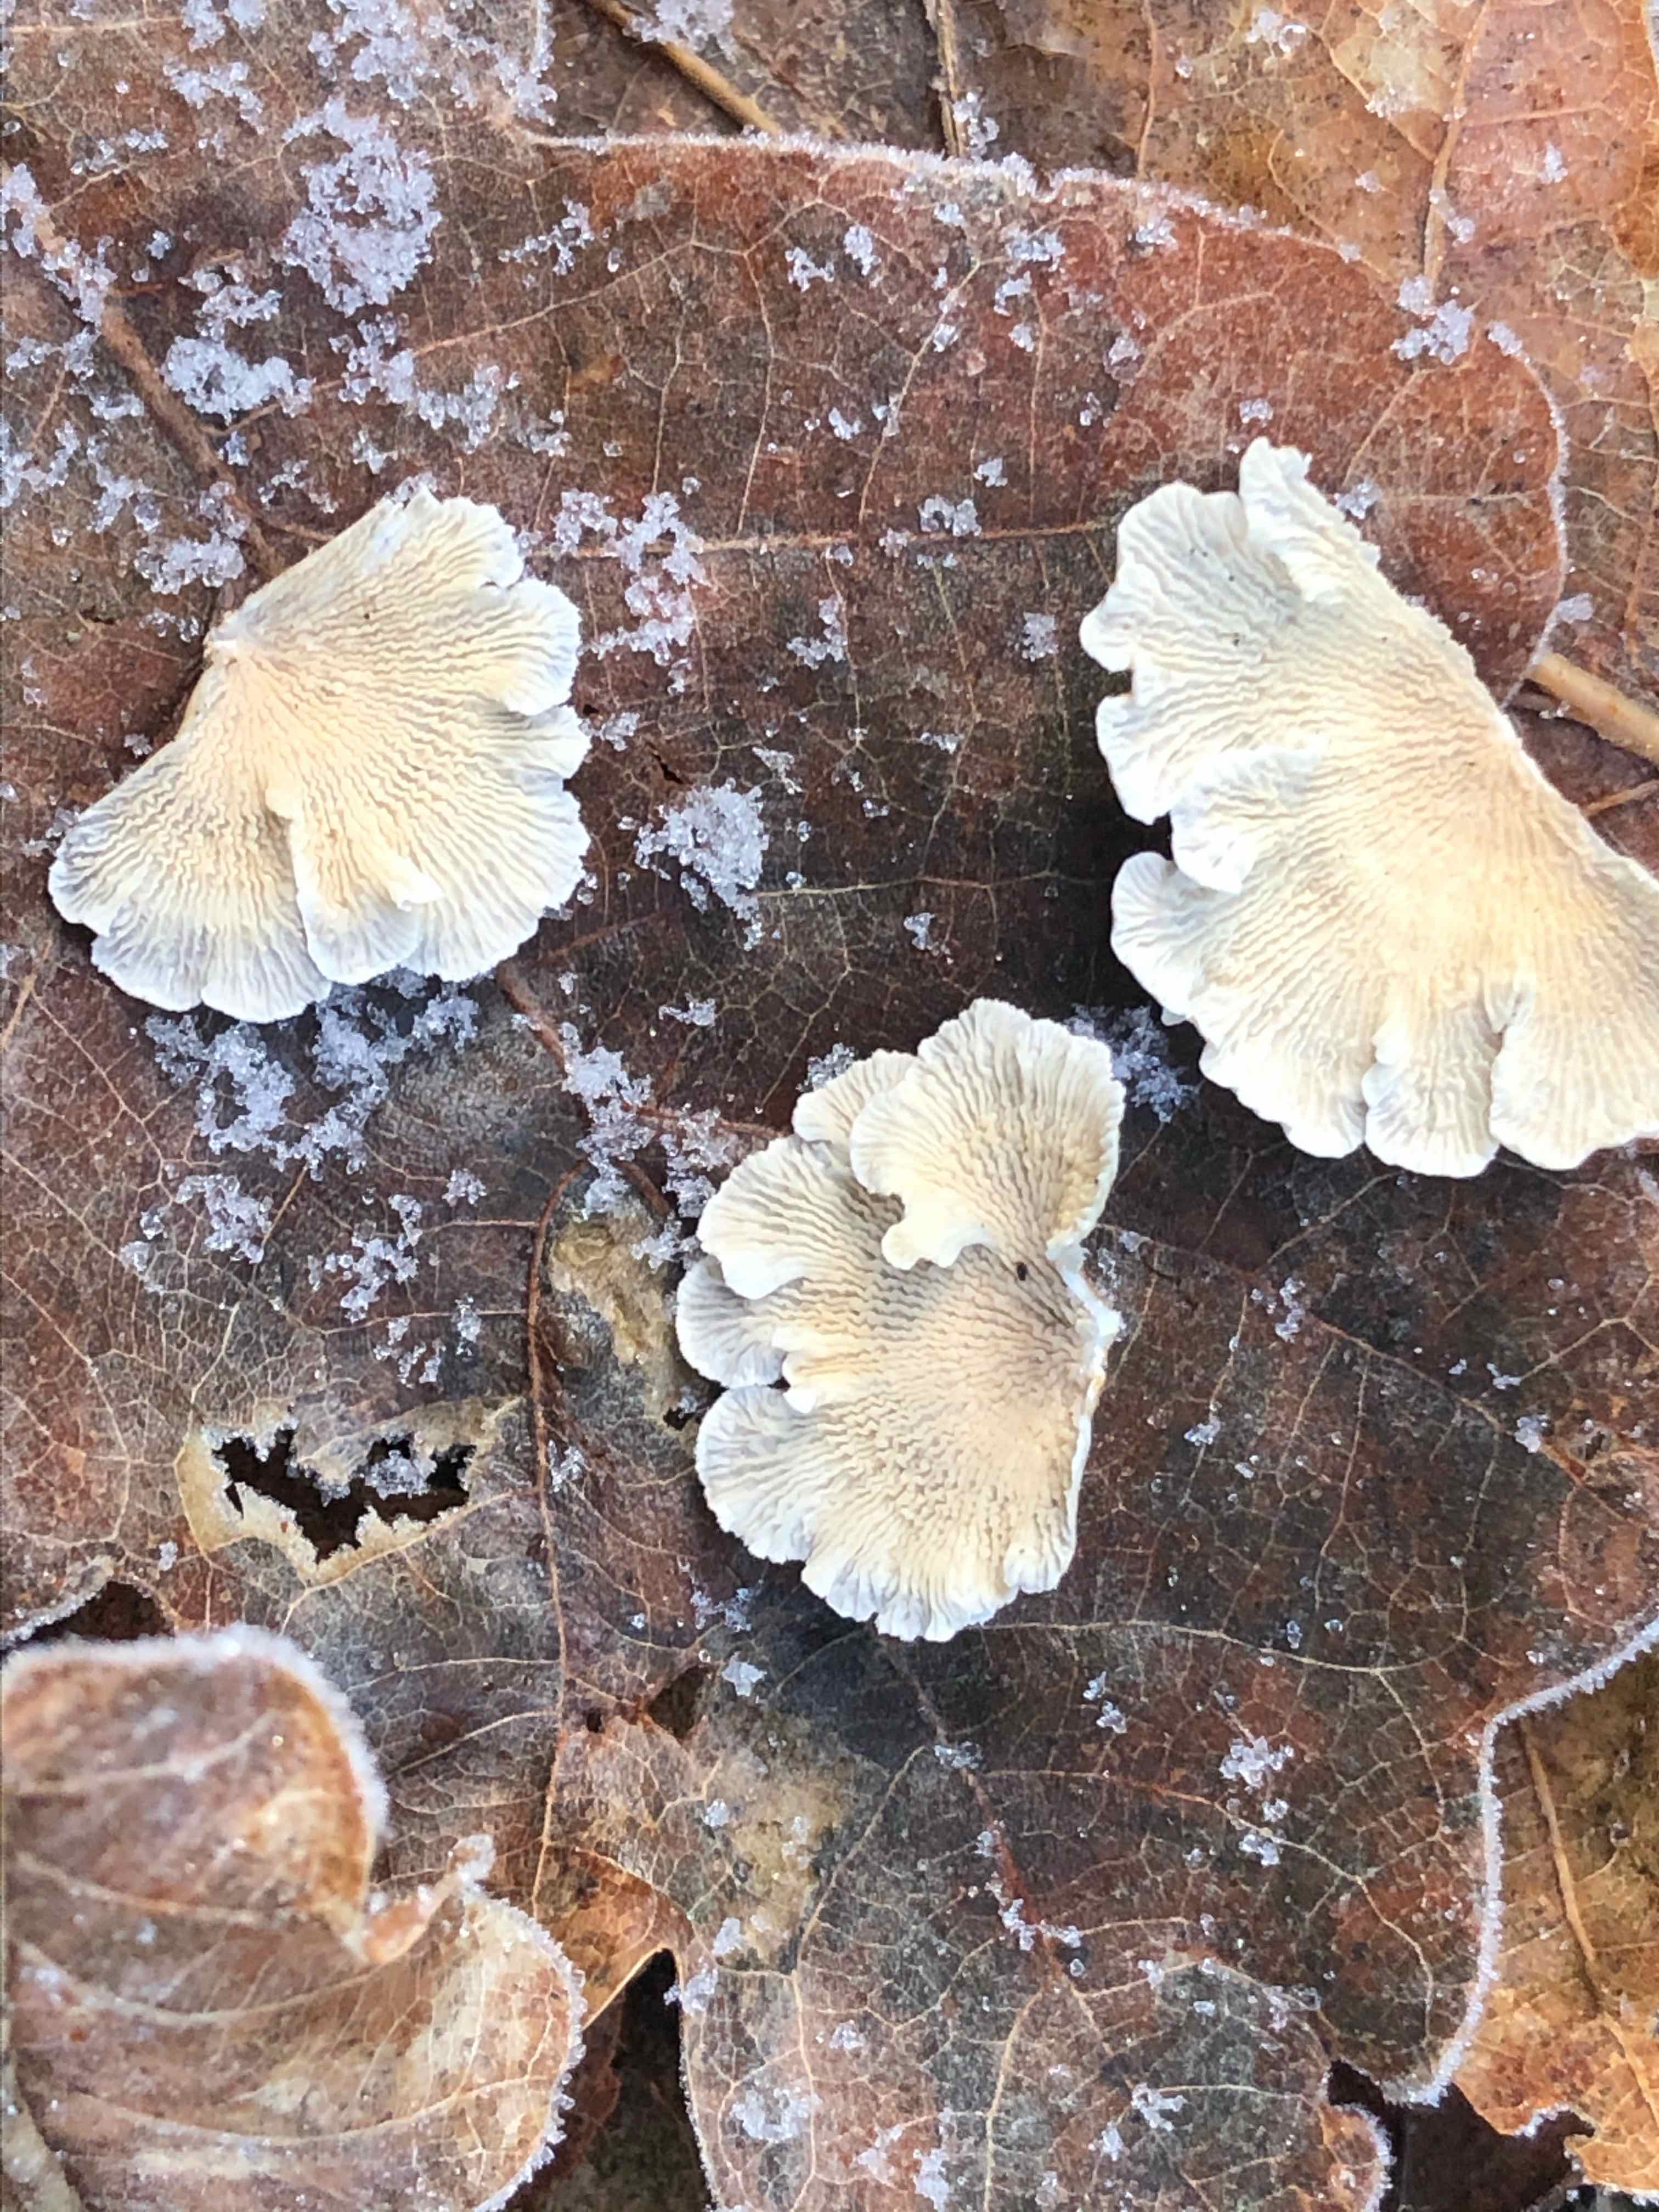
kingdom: Fungi
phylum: Basidiomycota
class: Agaricomycetes
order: Amylocorticiales
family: Amylocorticiaceae
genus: Plicaturopsis
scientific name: Plicaturopsis crispa
